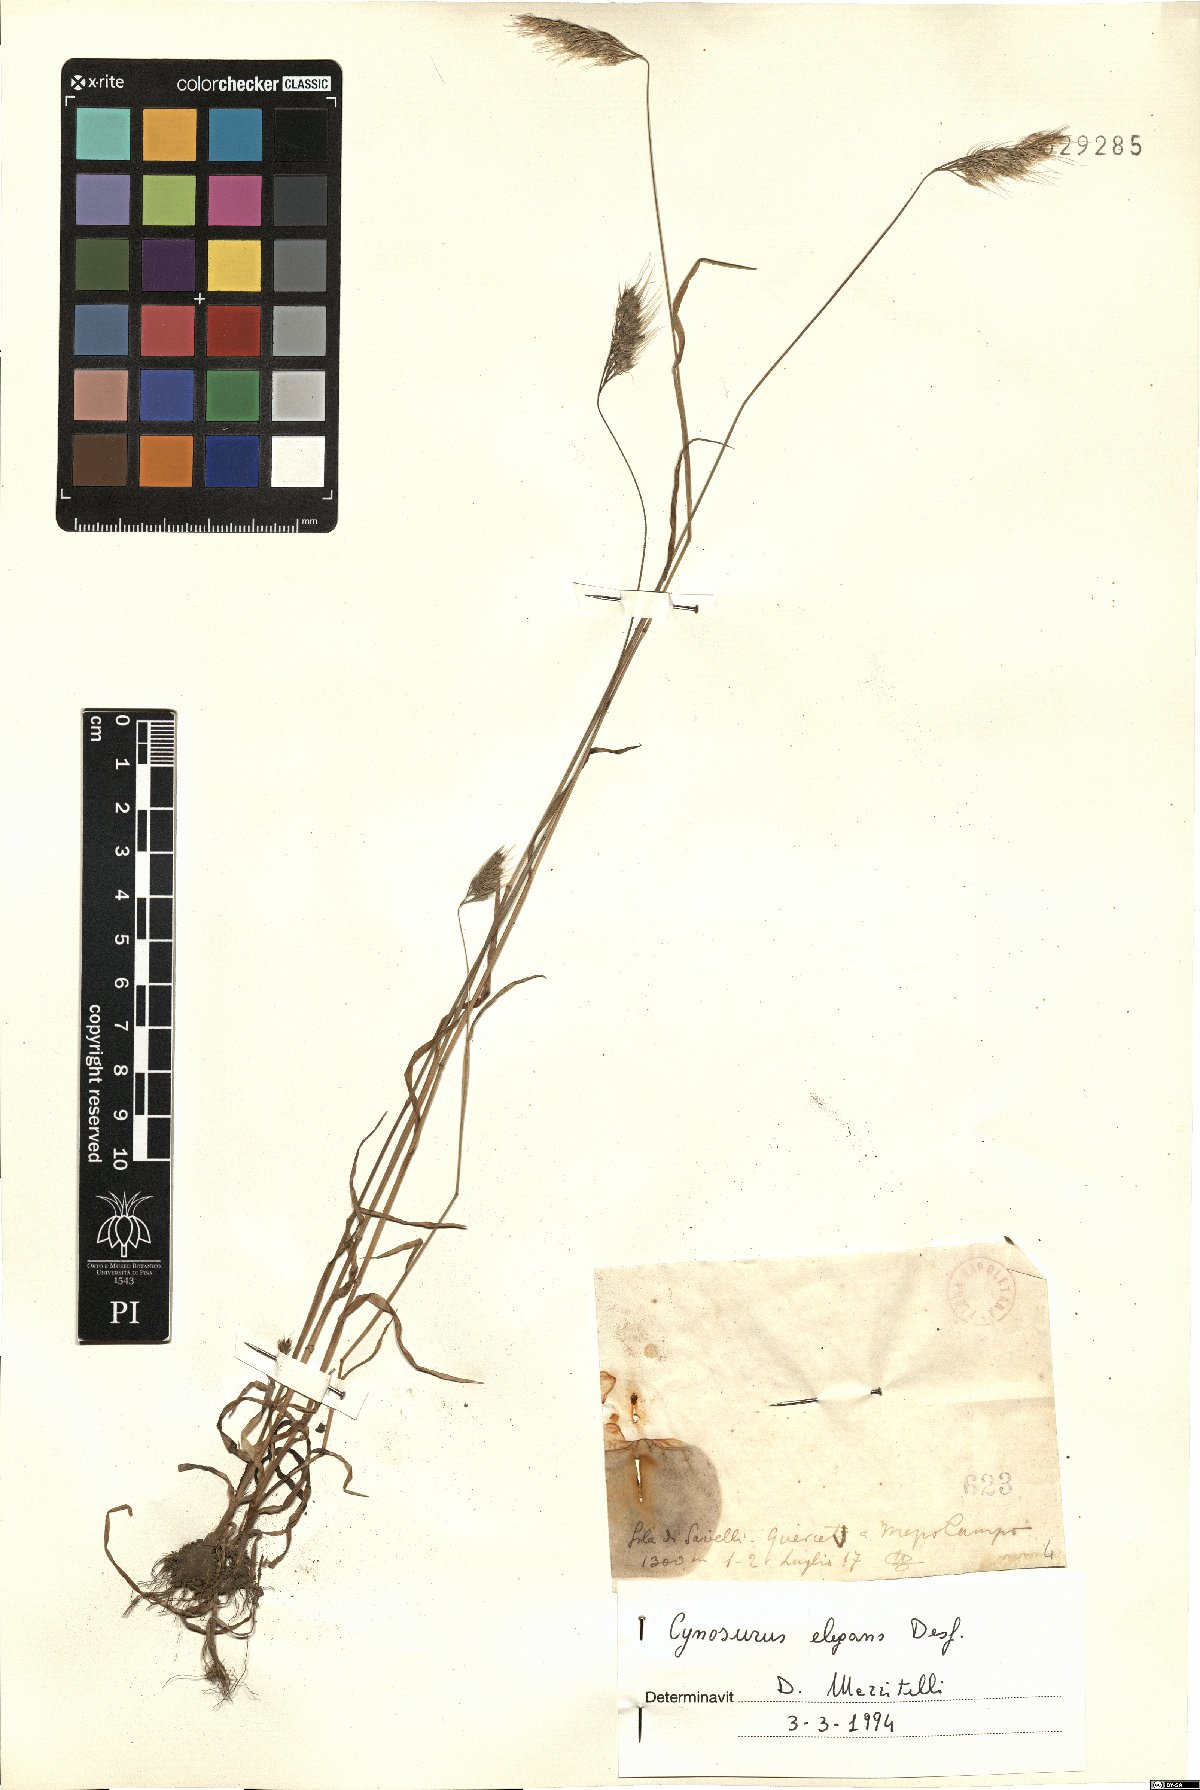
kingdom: Plantae
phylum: Tracheophyta
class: Liliopsida
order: Poales
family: Poaceae
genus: Cynosurus
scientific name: Cynosurus elegans
